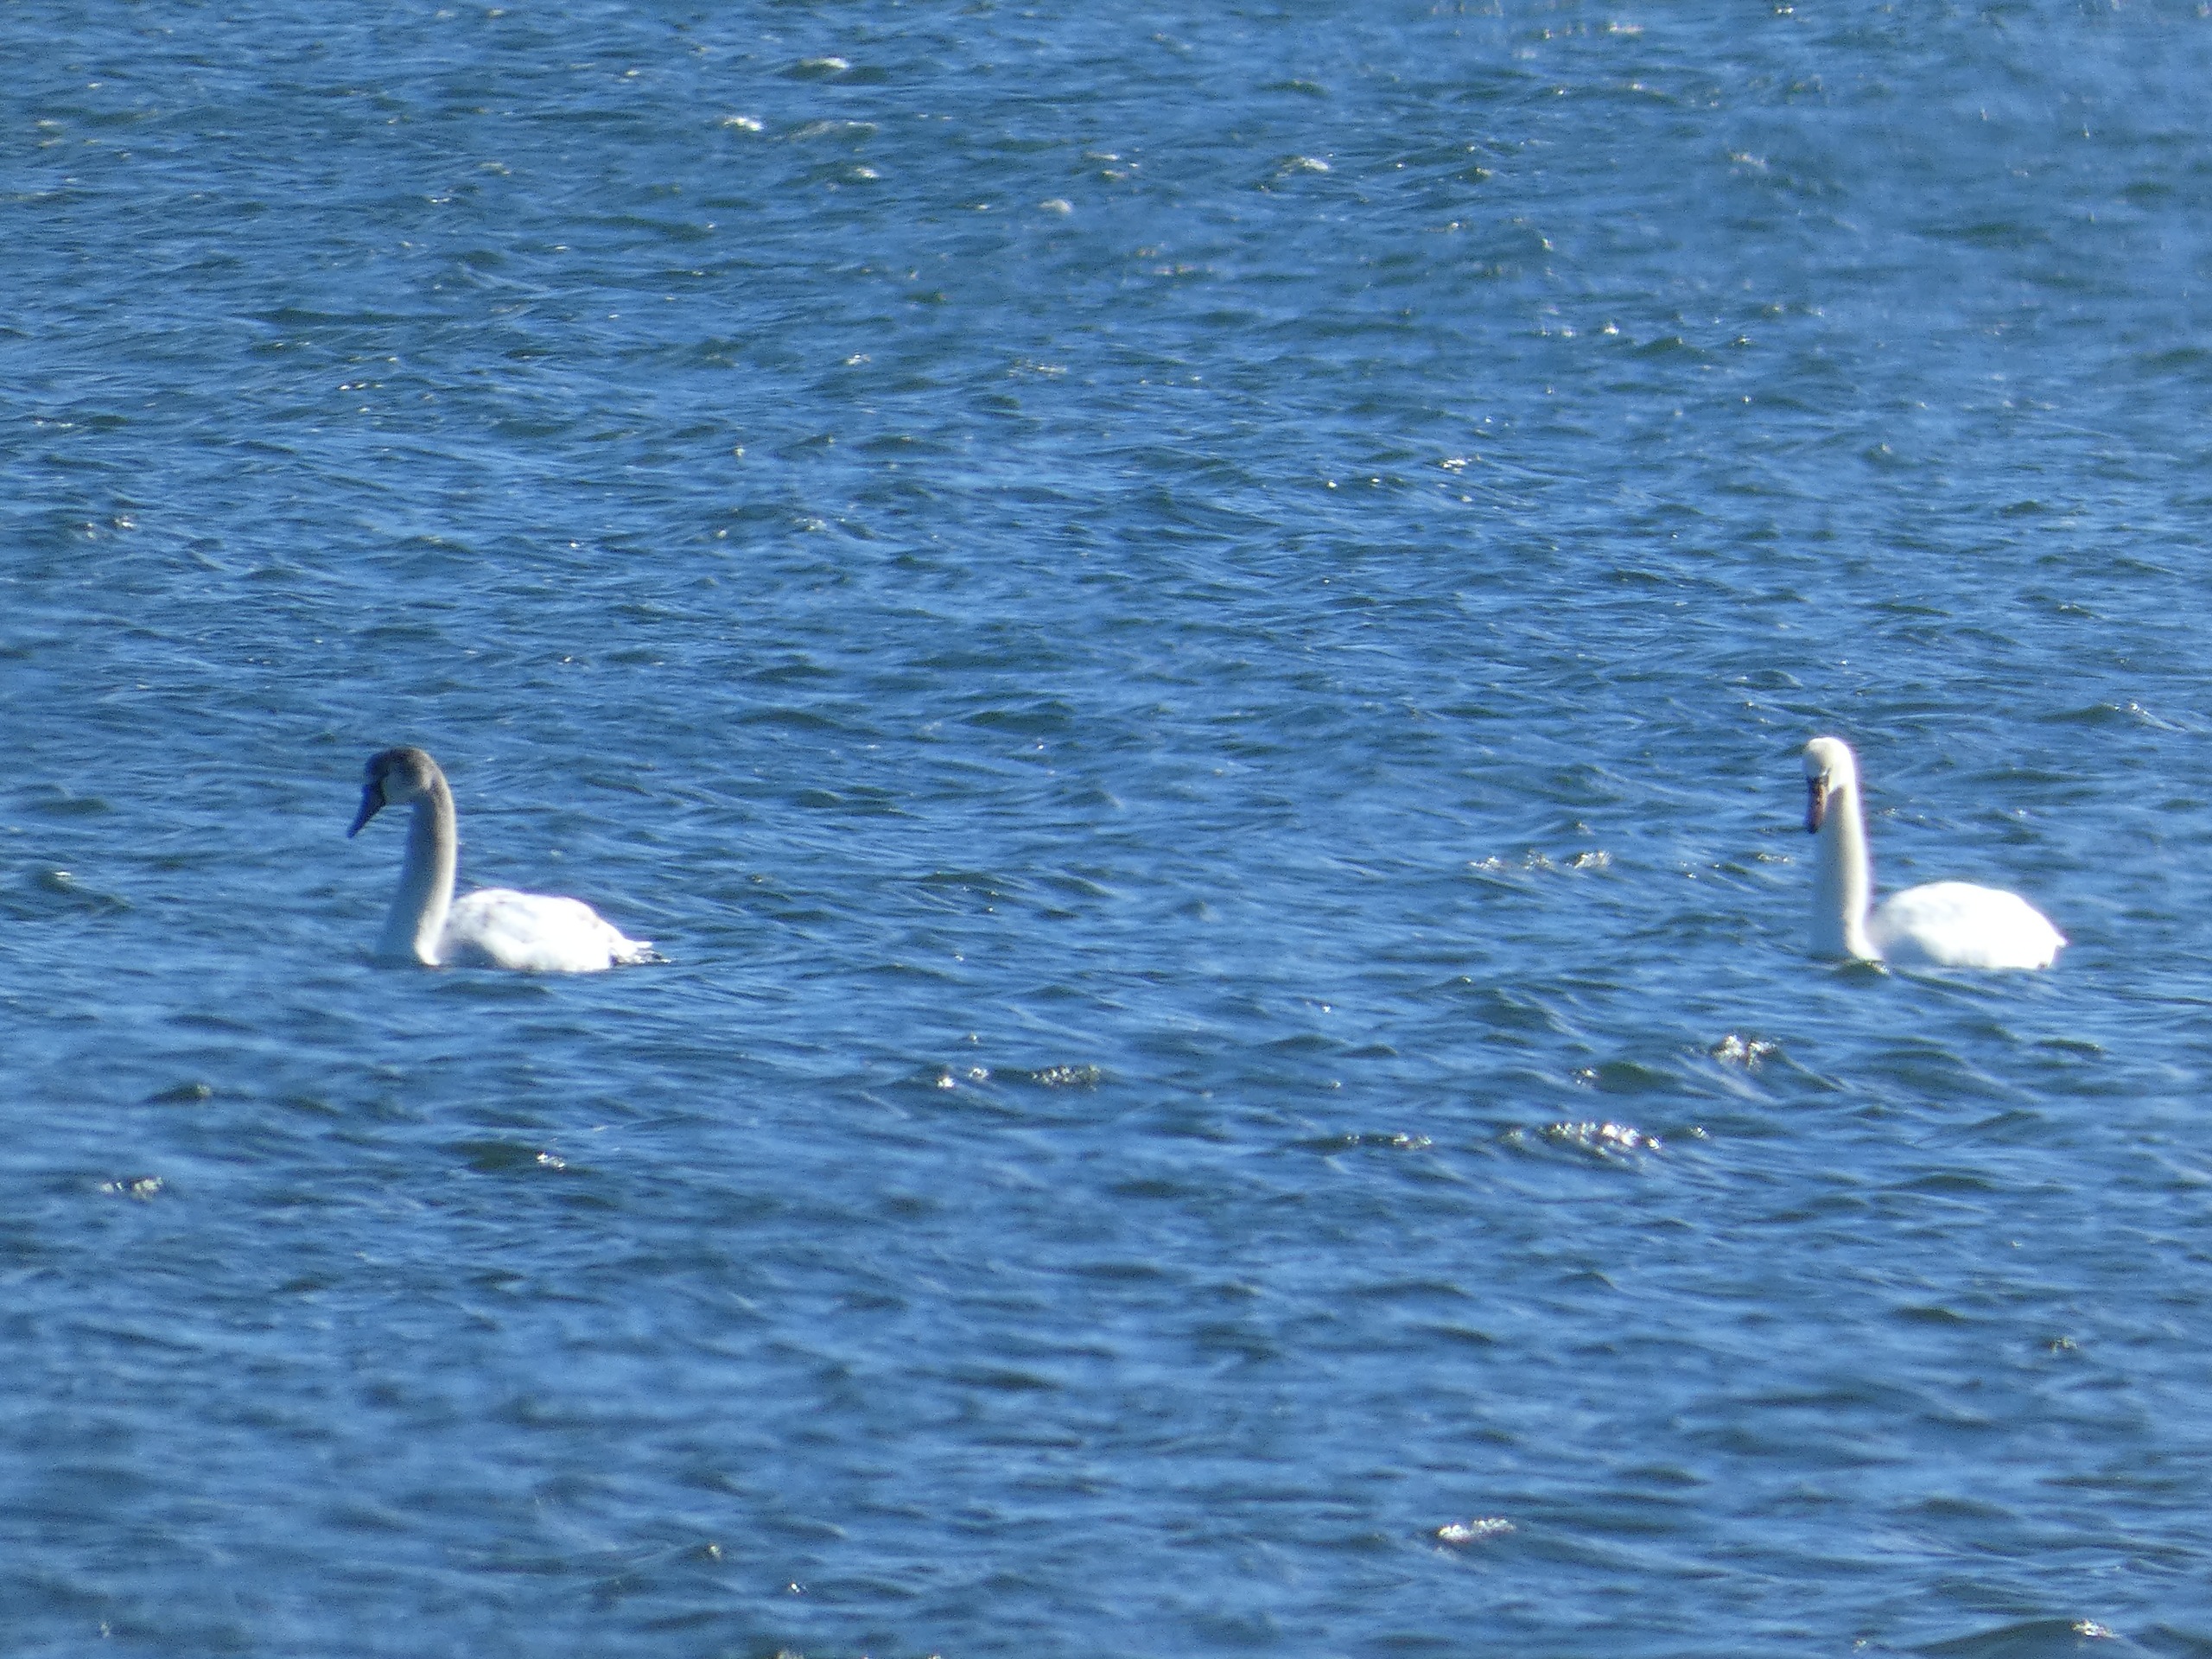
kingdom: Animalia
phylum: Chordata
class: Aves
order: Anseriformes
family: Anatidae
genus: Cygnus
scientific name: Cygnus olor
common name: Knopsvane
